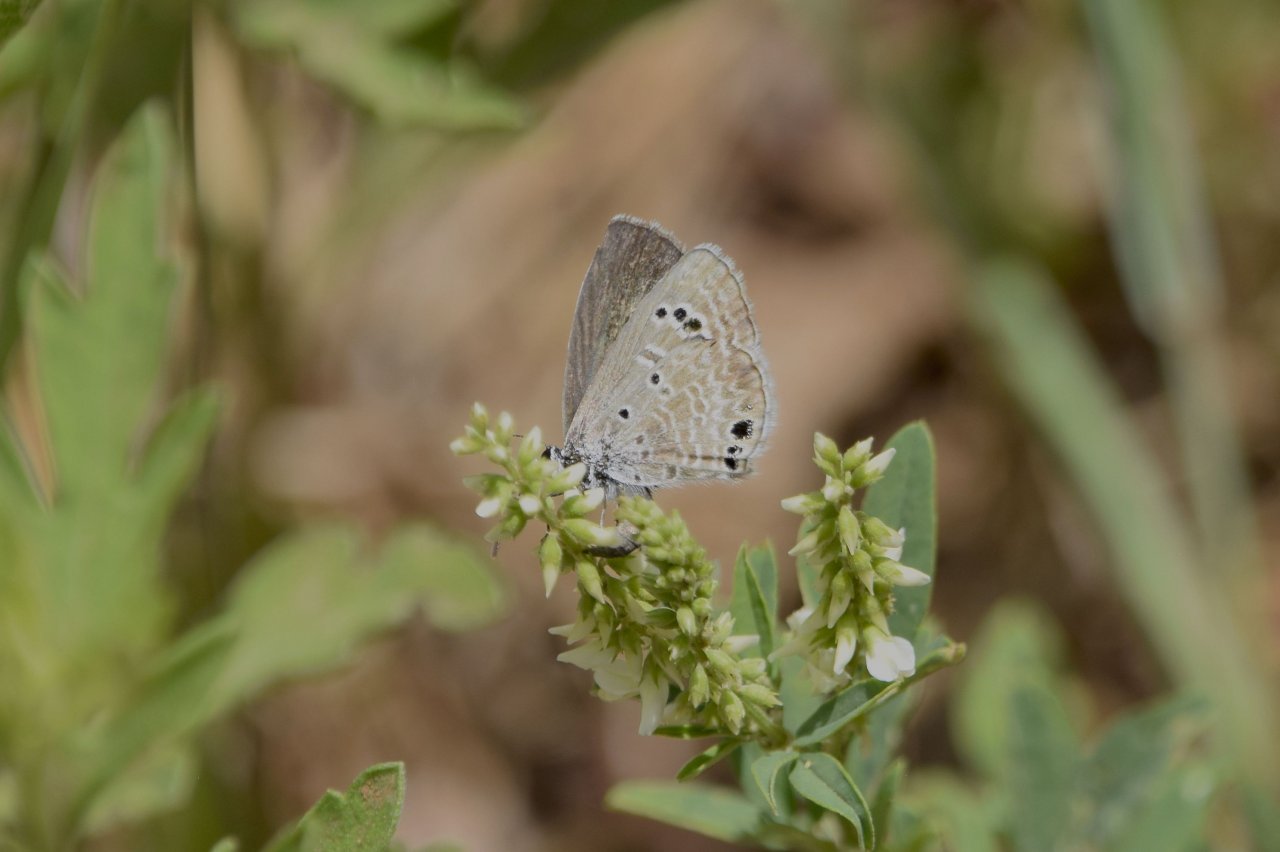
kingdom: Animalia
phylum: Arthropoda
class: Insecta
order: Lepidoptera
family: Lycaenidae
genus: Echinargus
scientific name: Echinargus isola
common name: Reakirt's Blue
